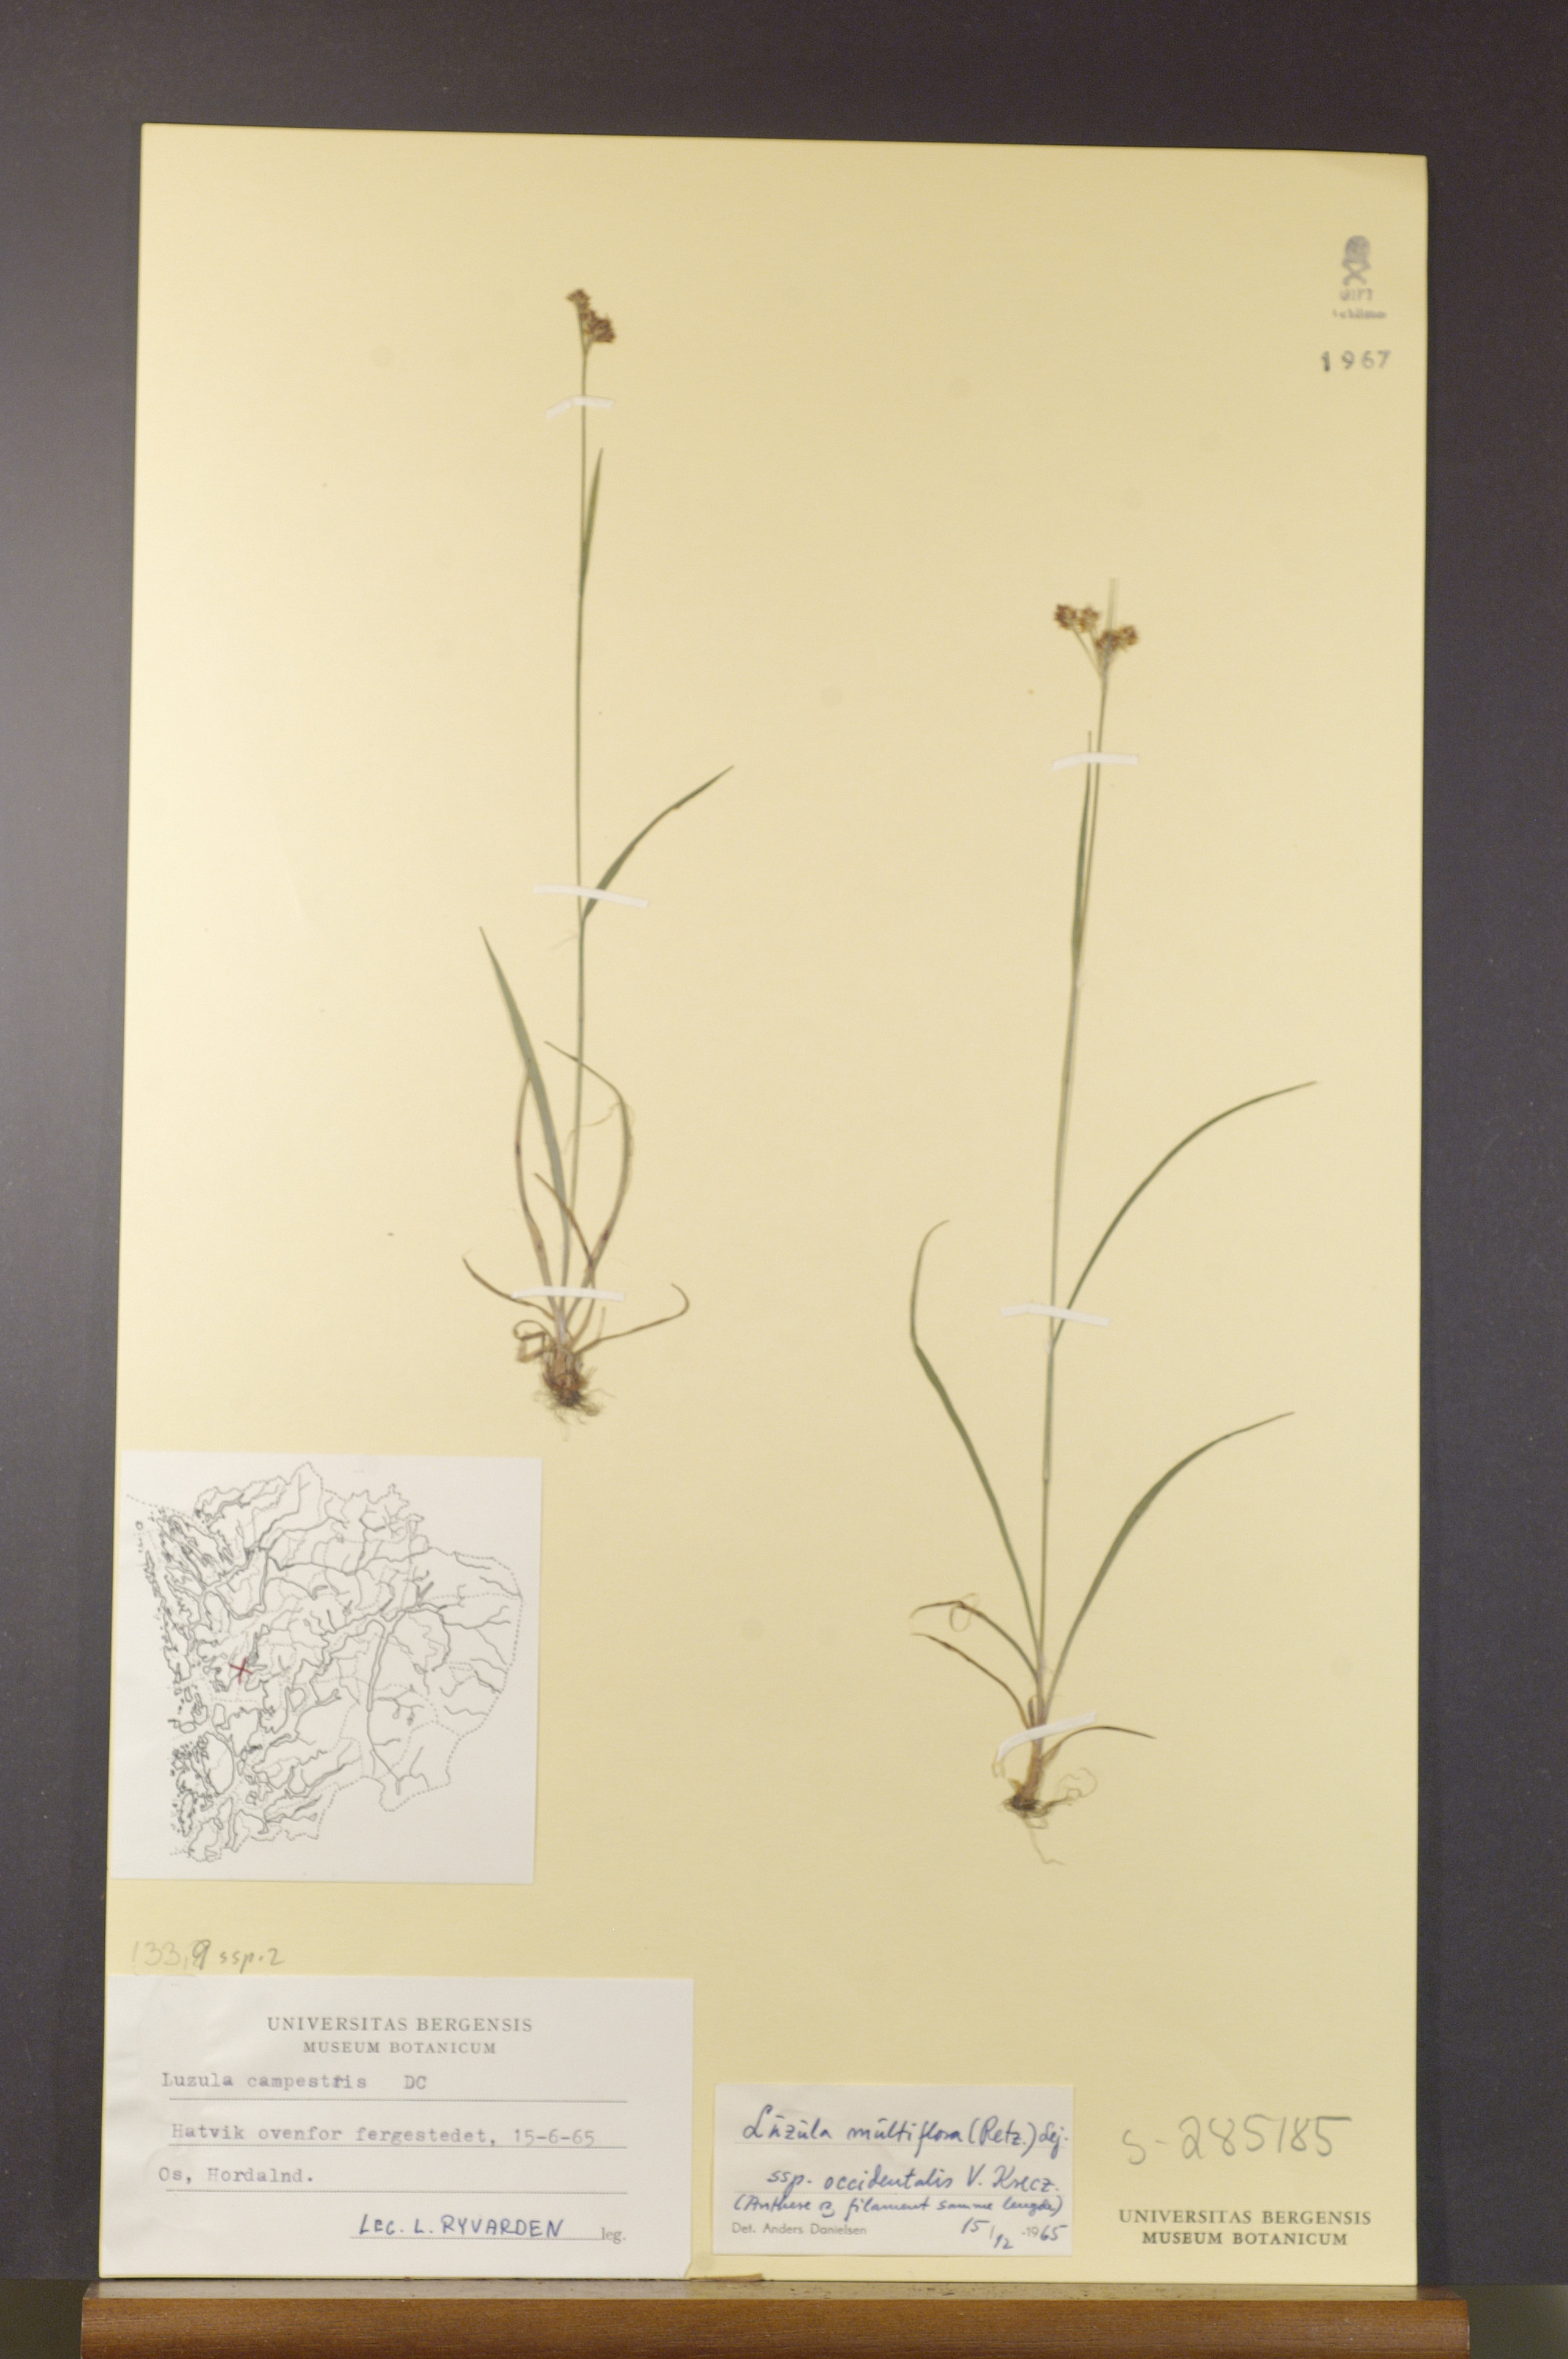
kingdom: Plantae
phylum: Tracheophyta
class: Liliopsida
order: Poales
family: Juncaceae
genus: Luzula
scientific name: Luzula multiflora
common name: Heath wood-rush
